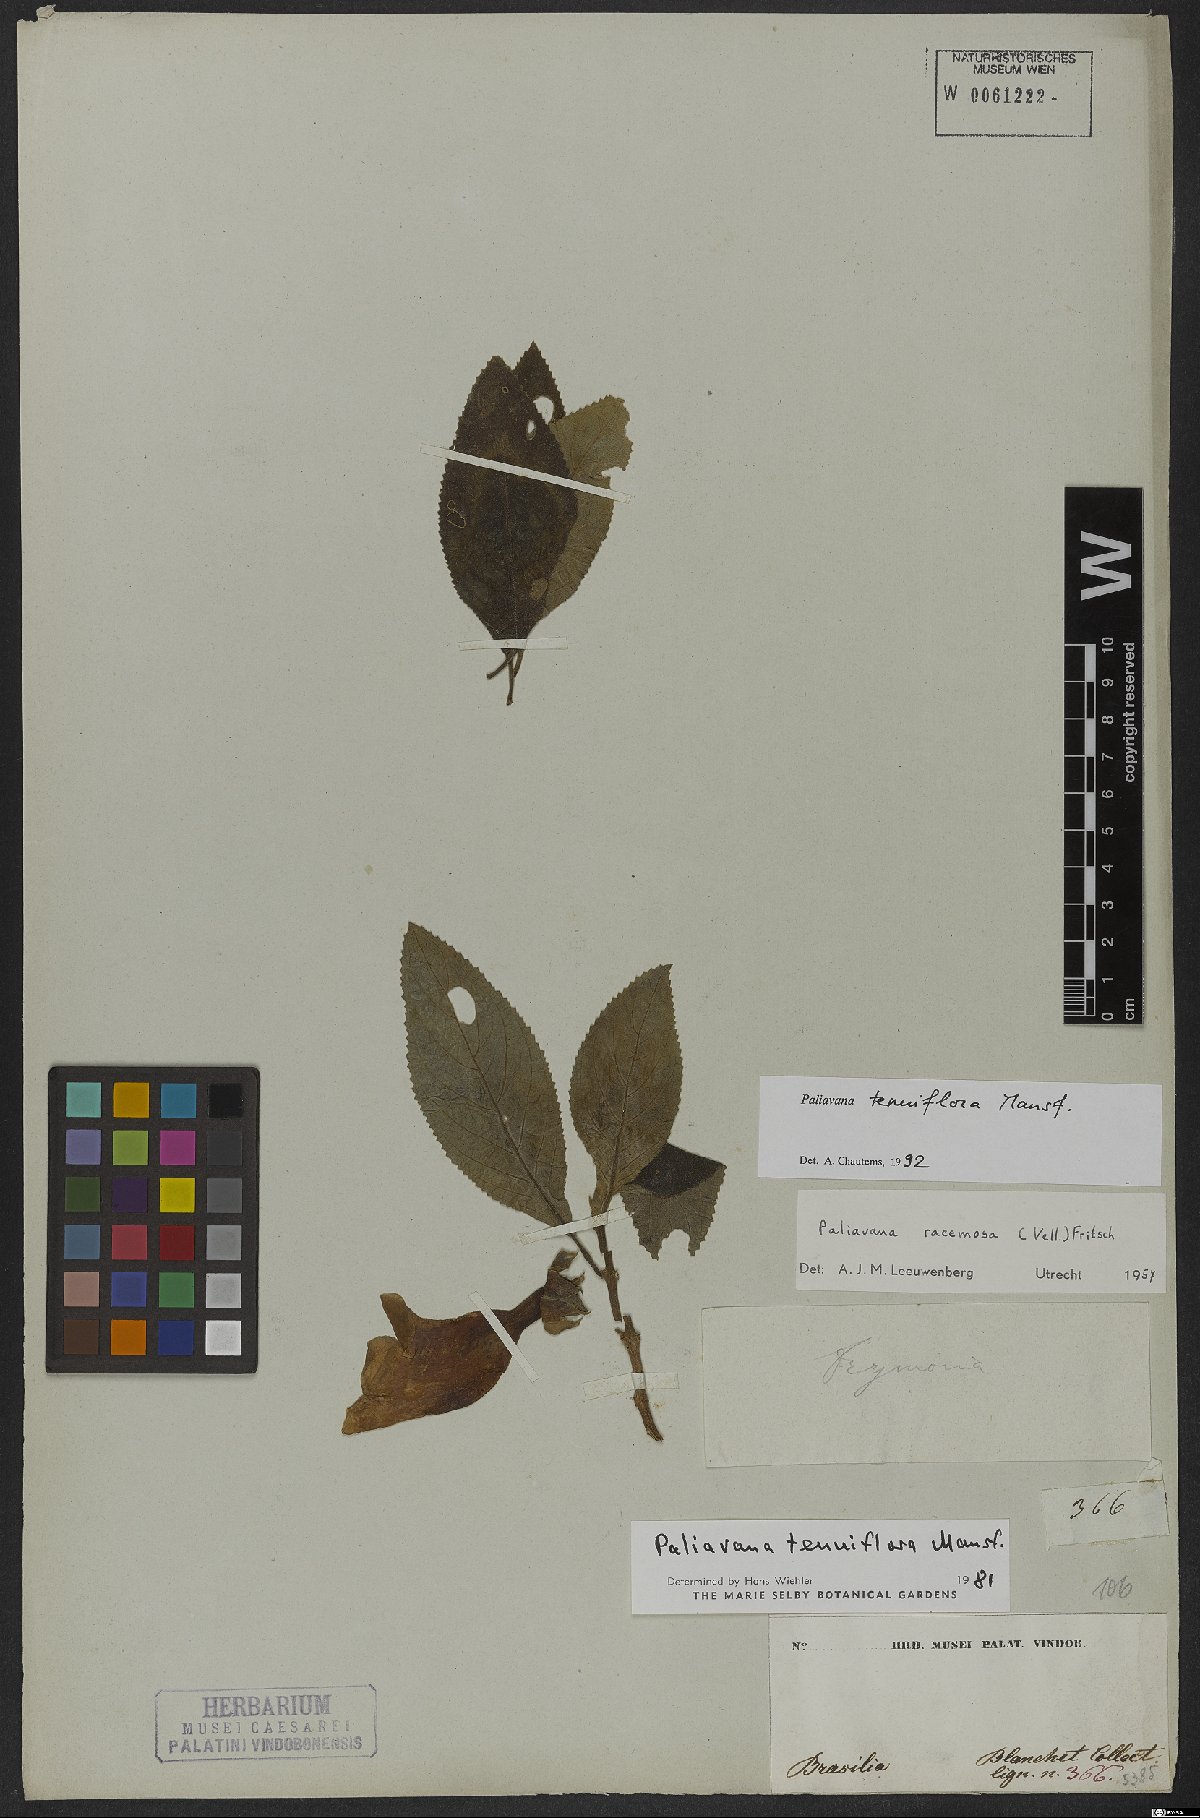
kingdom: Plantae
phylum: Tracheophyta
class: Magnoliopsida
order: Lamiales
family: Gesneriaceae
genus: Paliavana
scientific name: Paliavana tenuiflora
